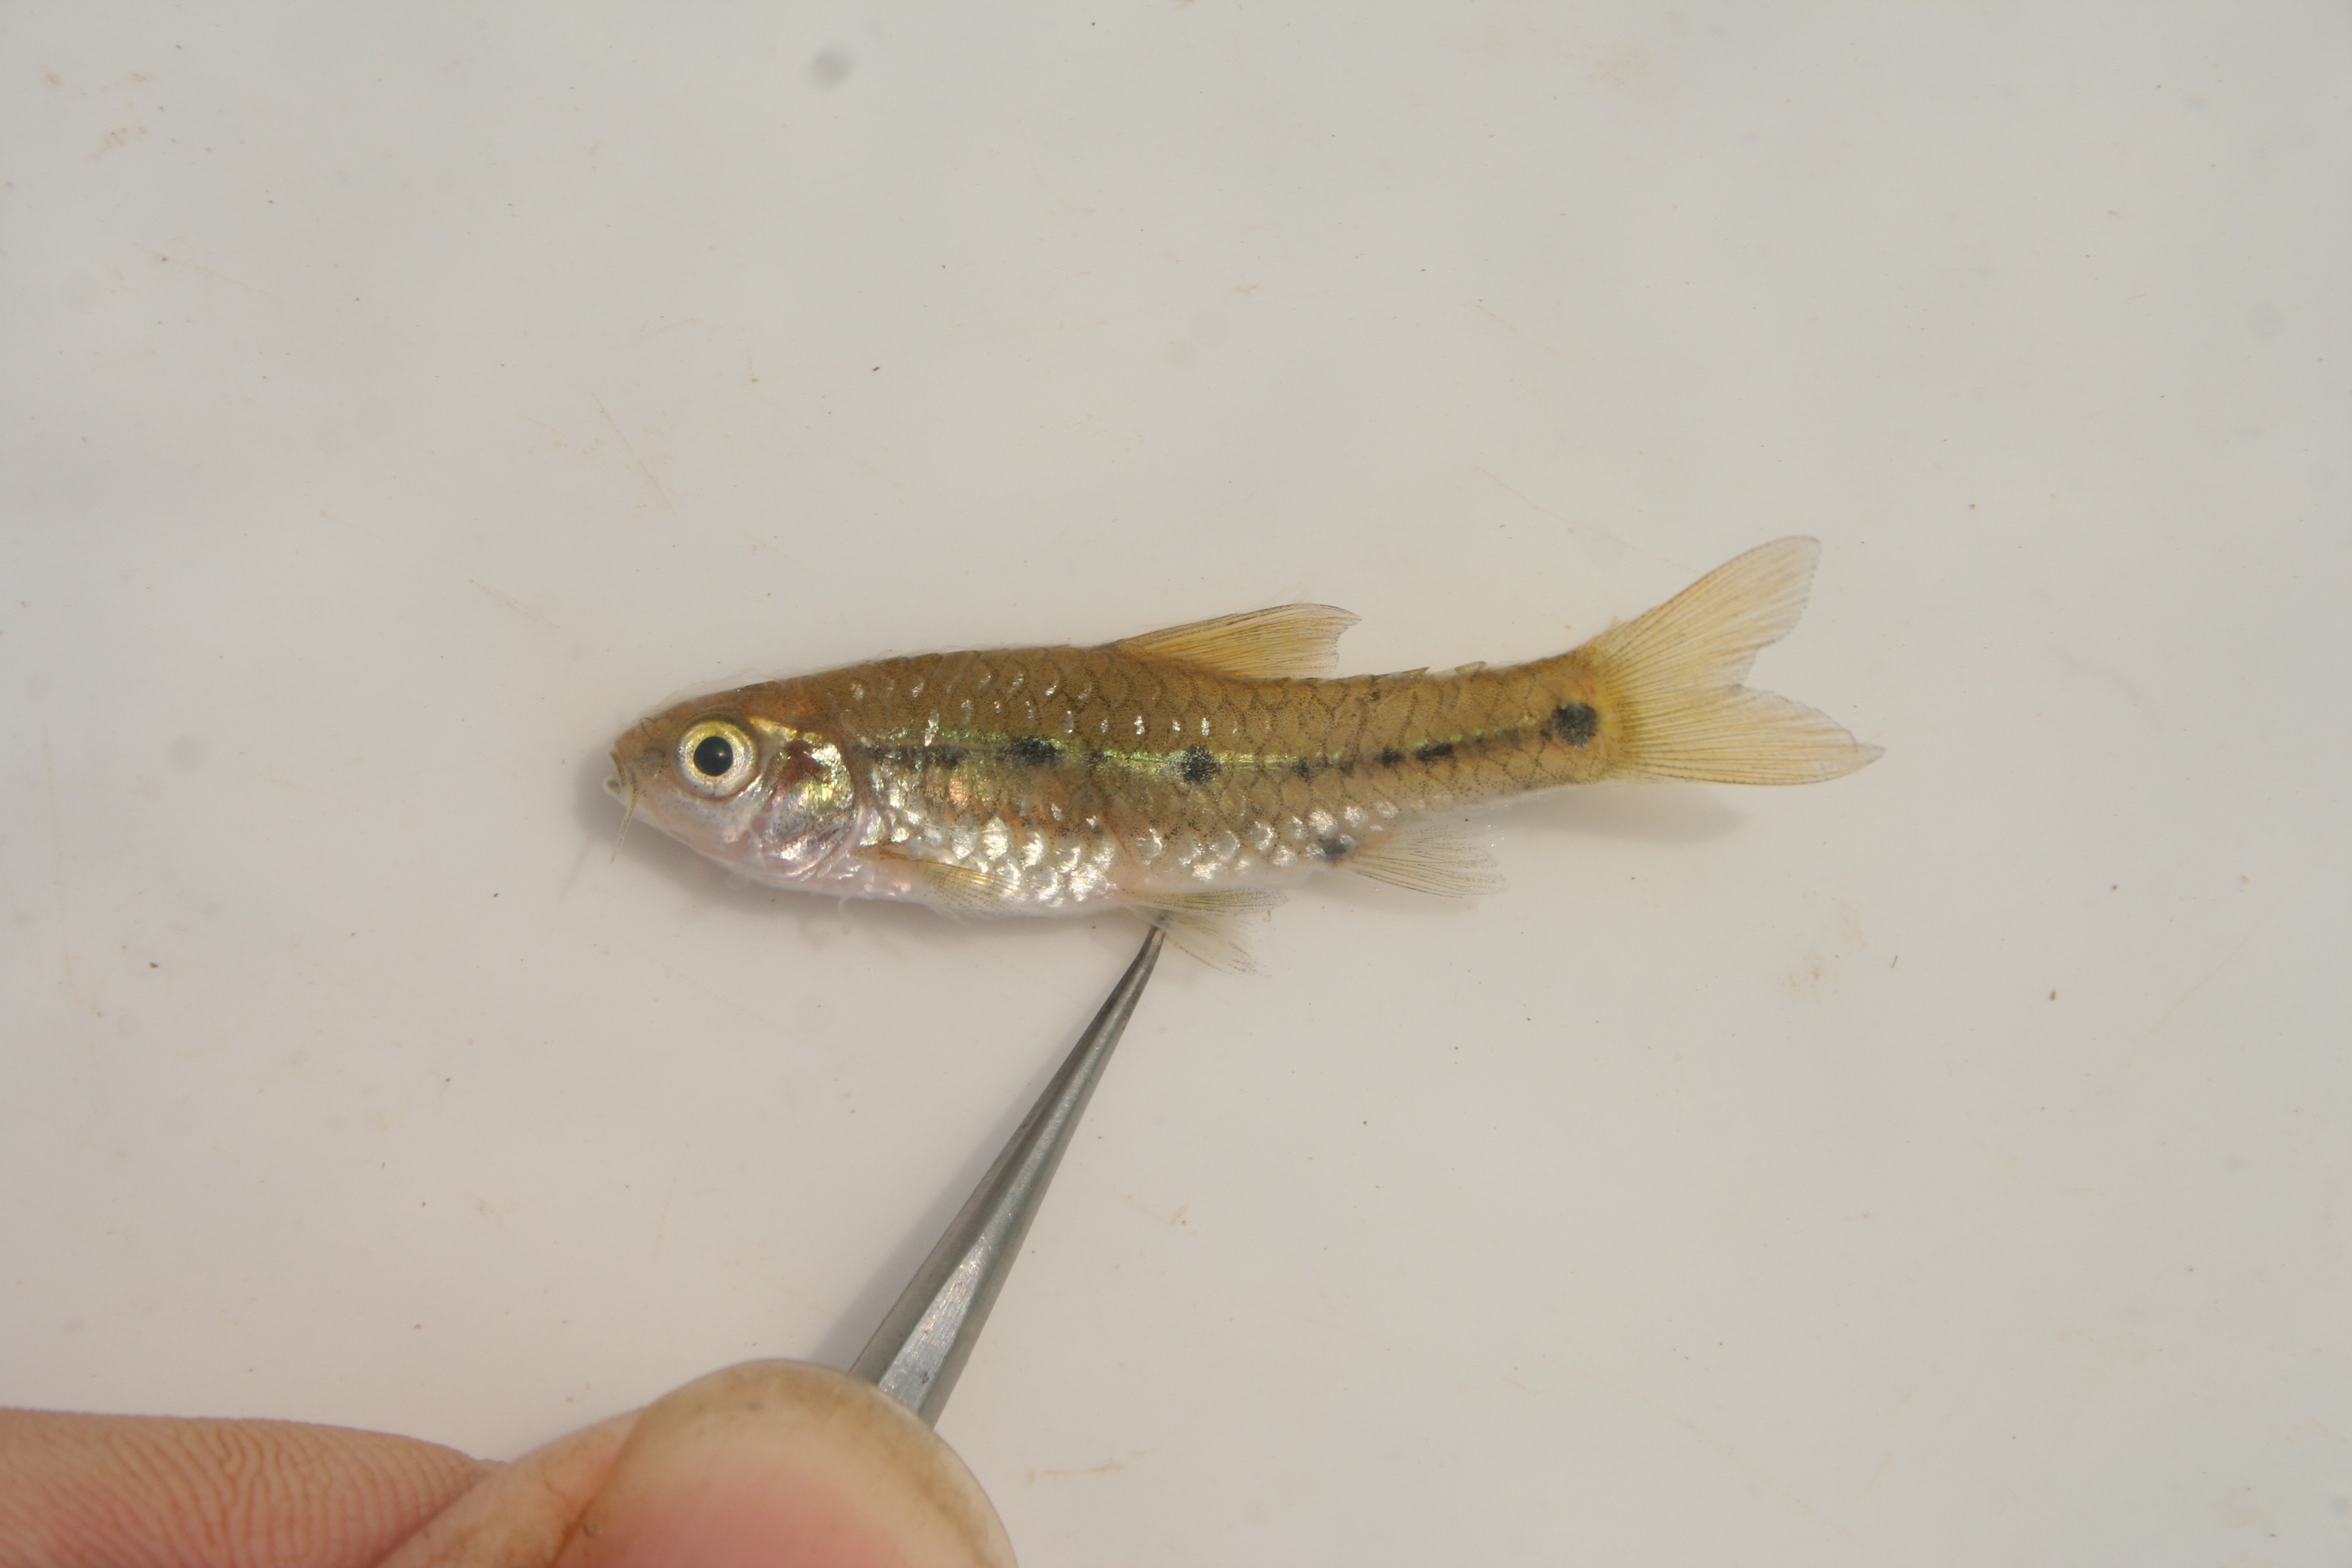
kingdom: Animalia
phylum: Chordata
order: Cypriniformes
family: Cyprinidae
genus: Enteromius
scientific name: Enteromius greenwoodi
